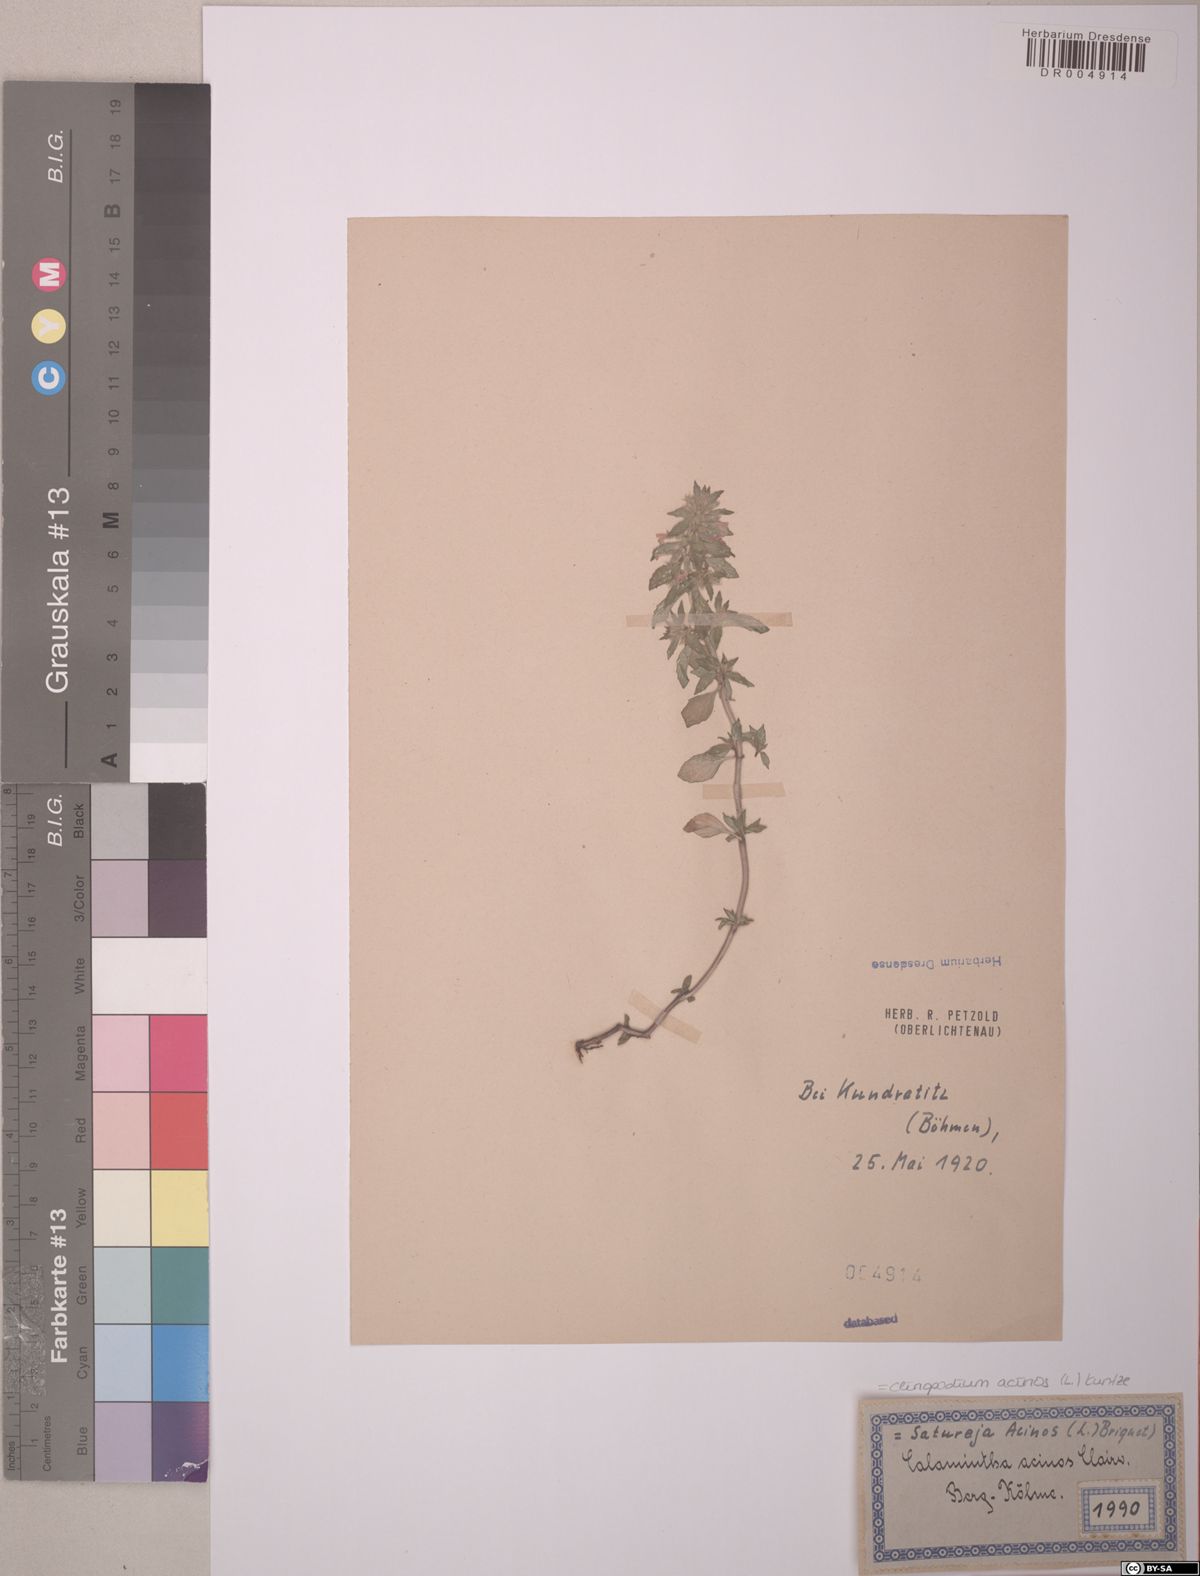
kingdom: Plantae
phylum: Tracheophyta
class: Magnoliopsida
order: Lamiales
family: Lamiaceae
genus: Clinopodium
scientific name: Clinopodium acinos
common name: Basil thyme
